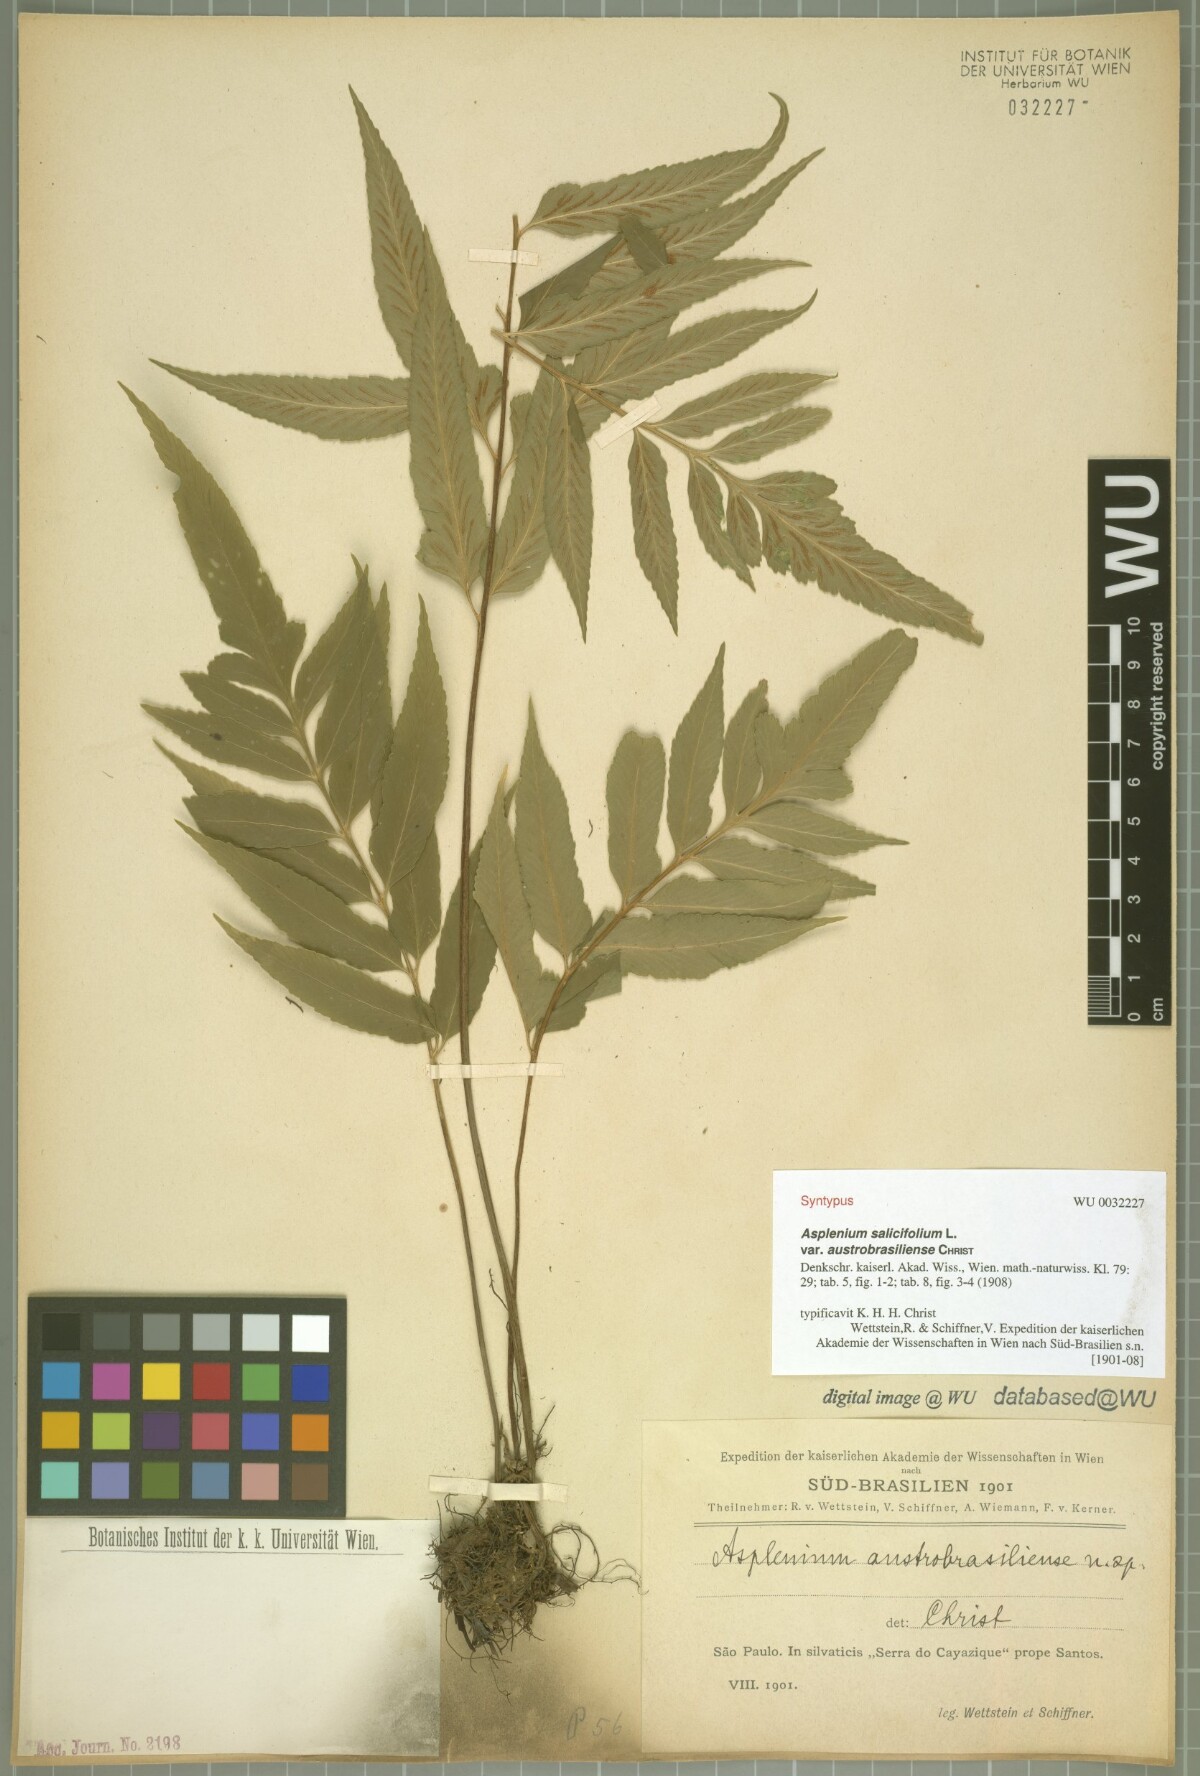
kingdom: Plantae
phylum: Tracheophyta
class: Polypodiopsida
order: Polypodiales
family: Aspleniaceae
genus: Asplenium
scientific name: Asplenium austrobrasiliense
